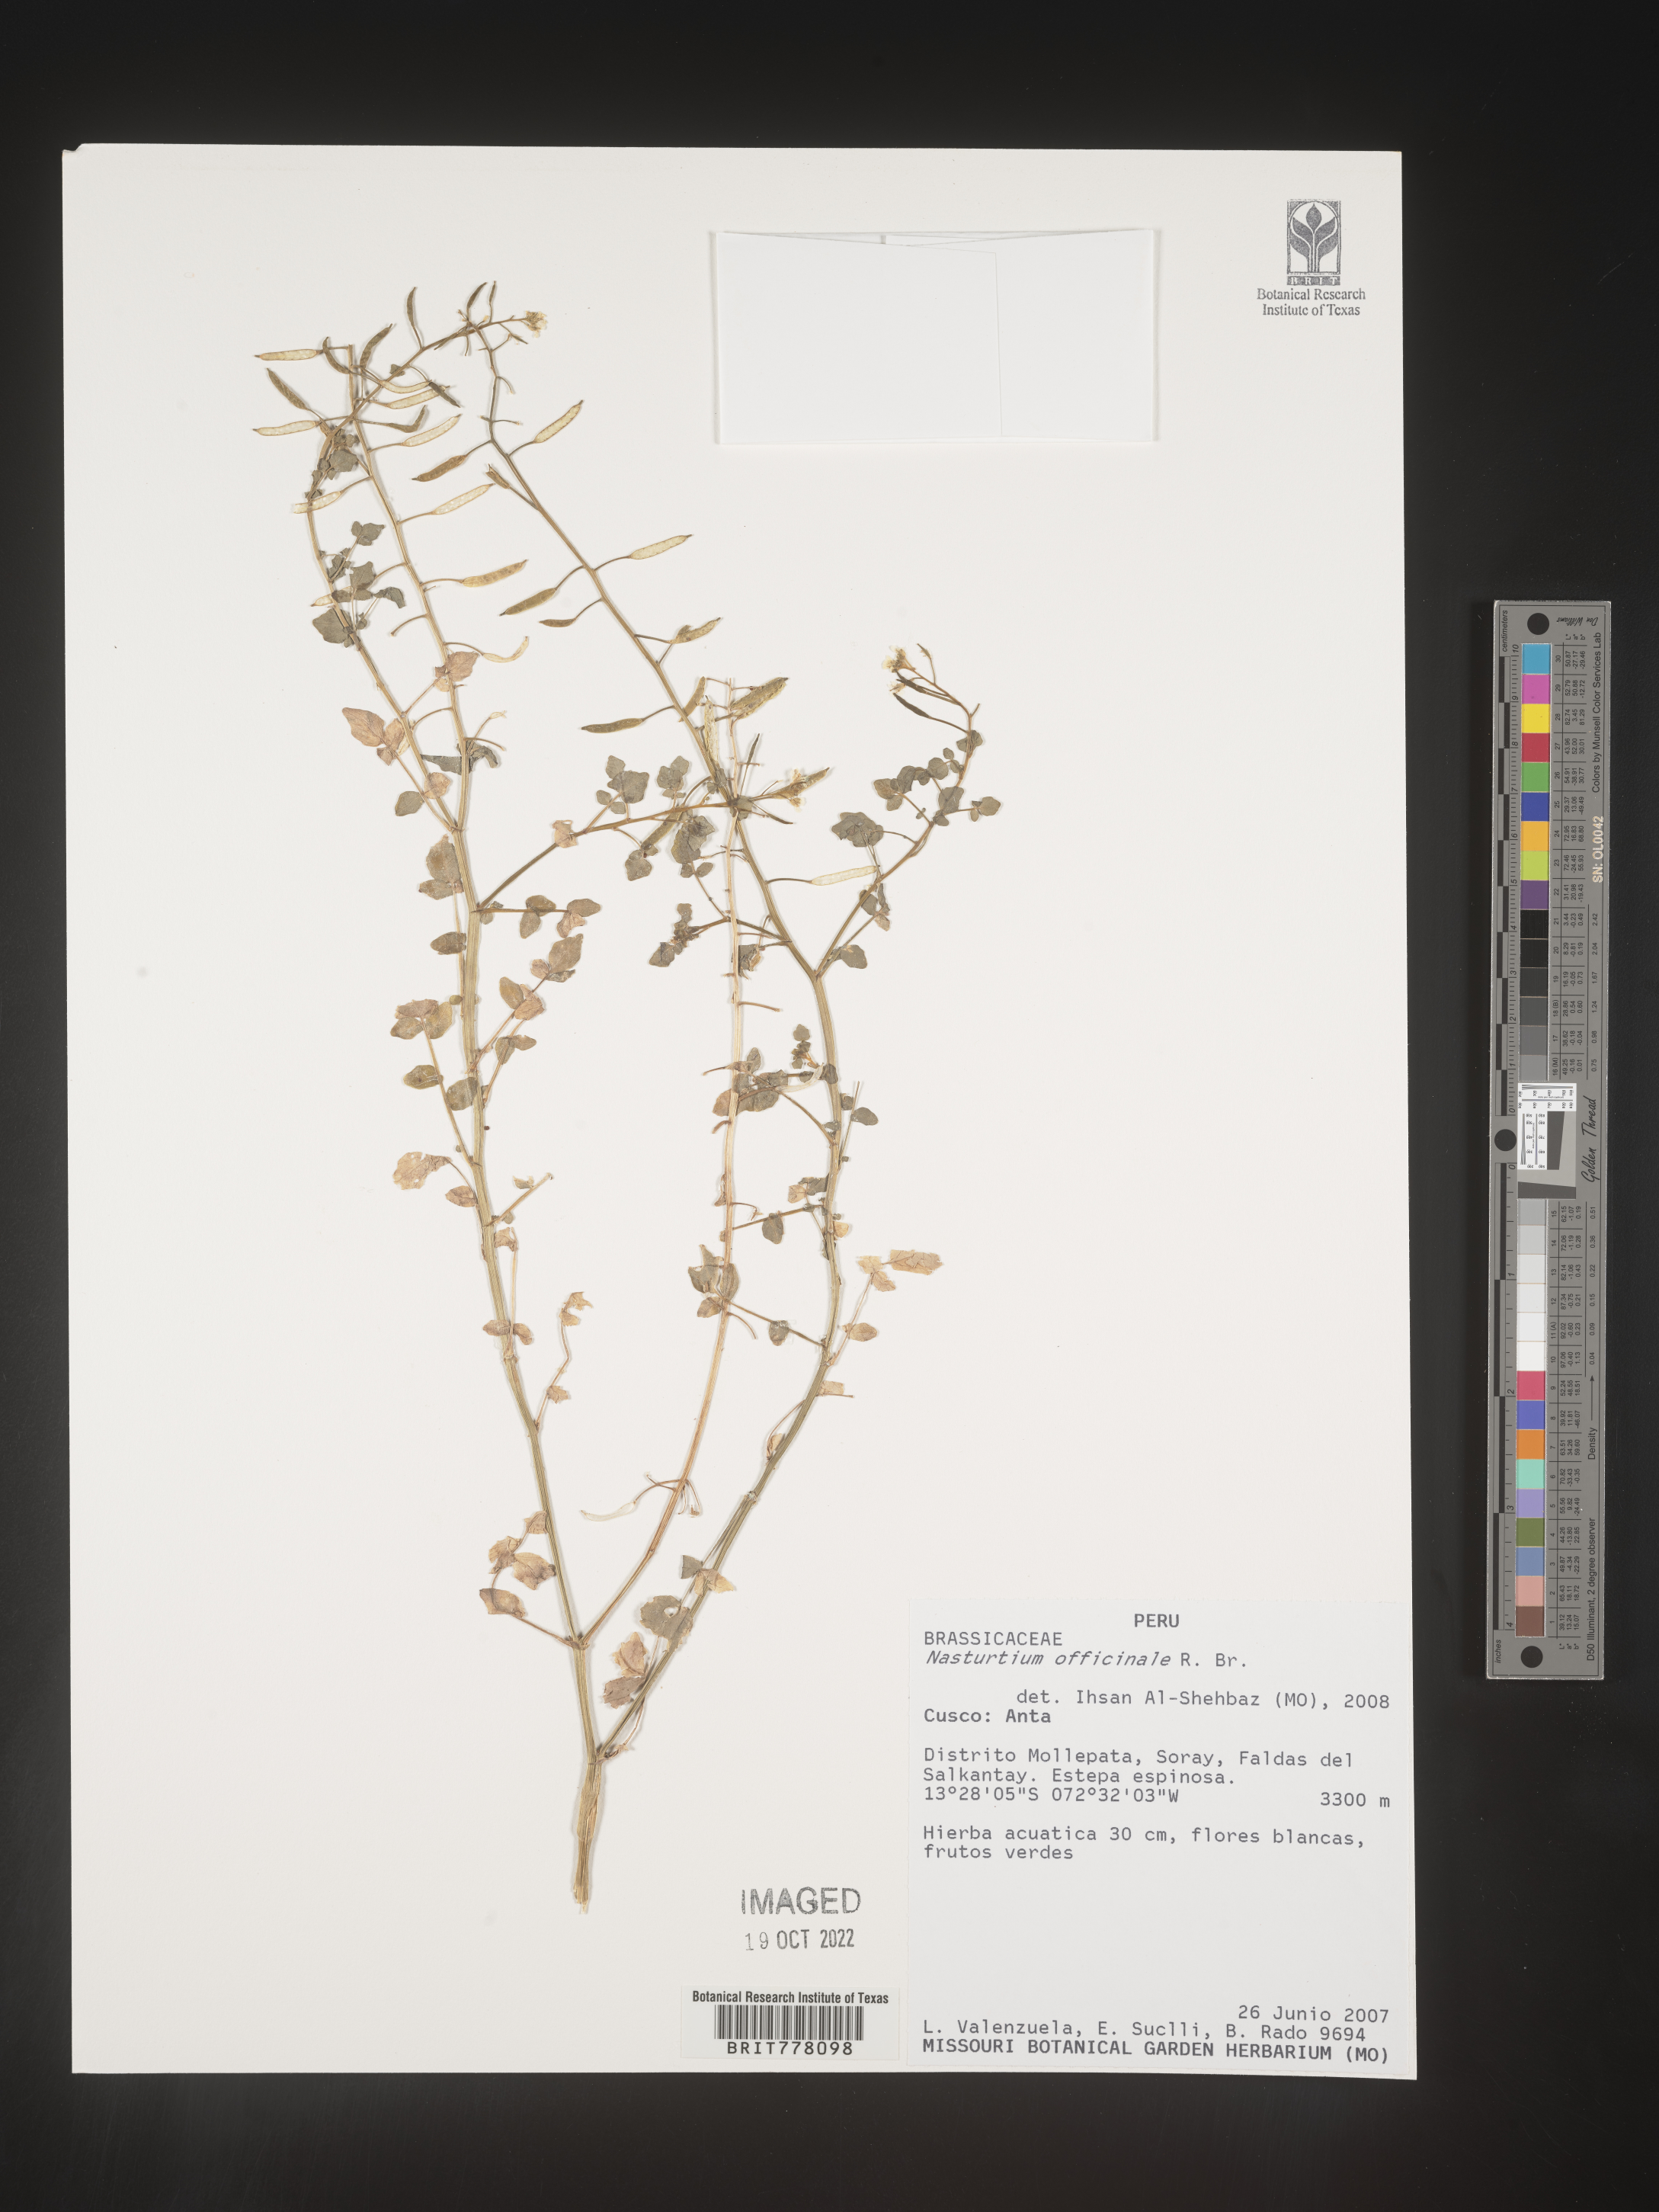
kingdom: Plantae
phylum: Tracheophyta
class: Magnoliopsida
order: Brassicales
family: Brassicaceae
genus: Nasturtium
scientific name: Nasturtium
